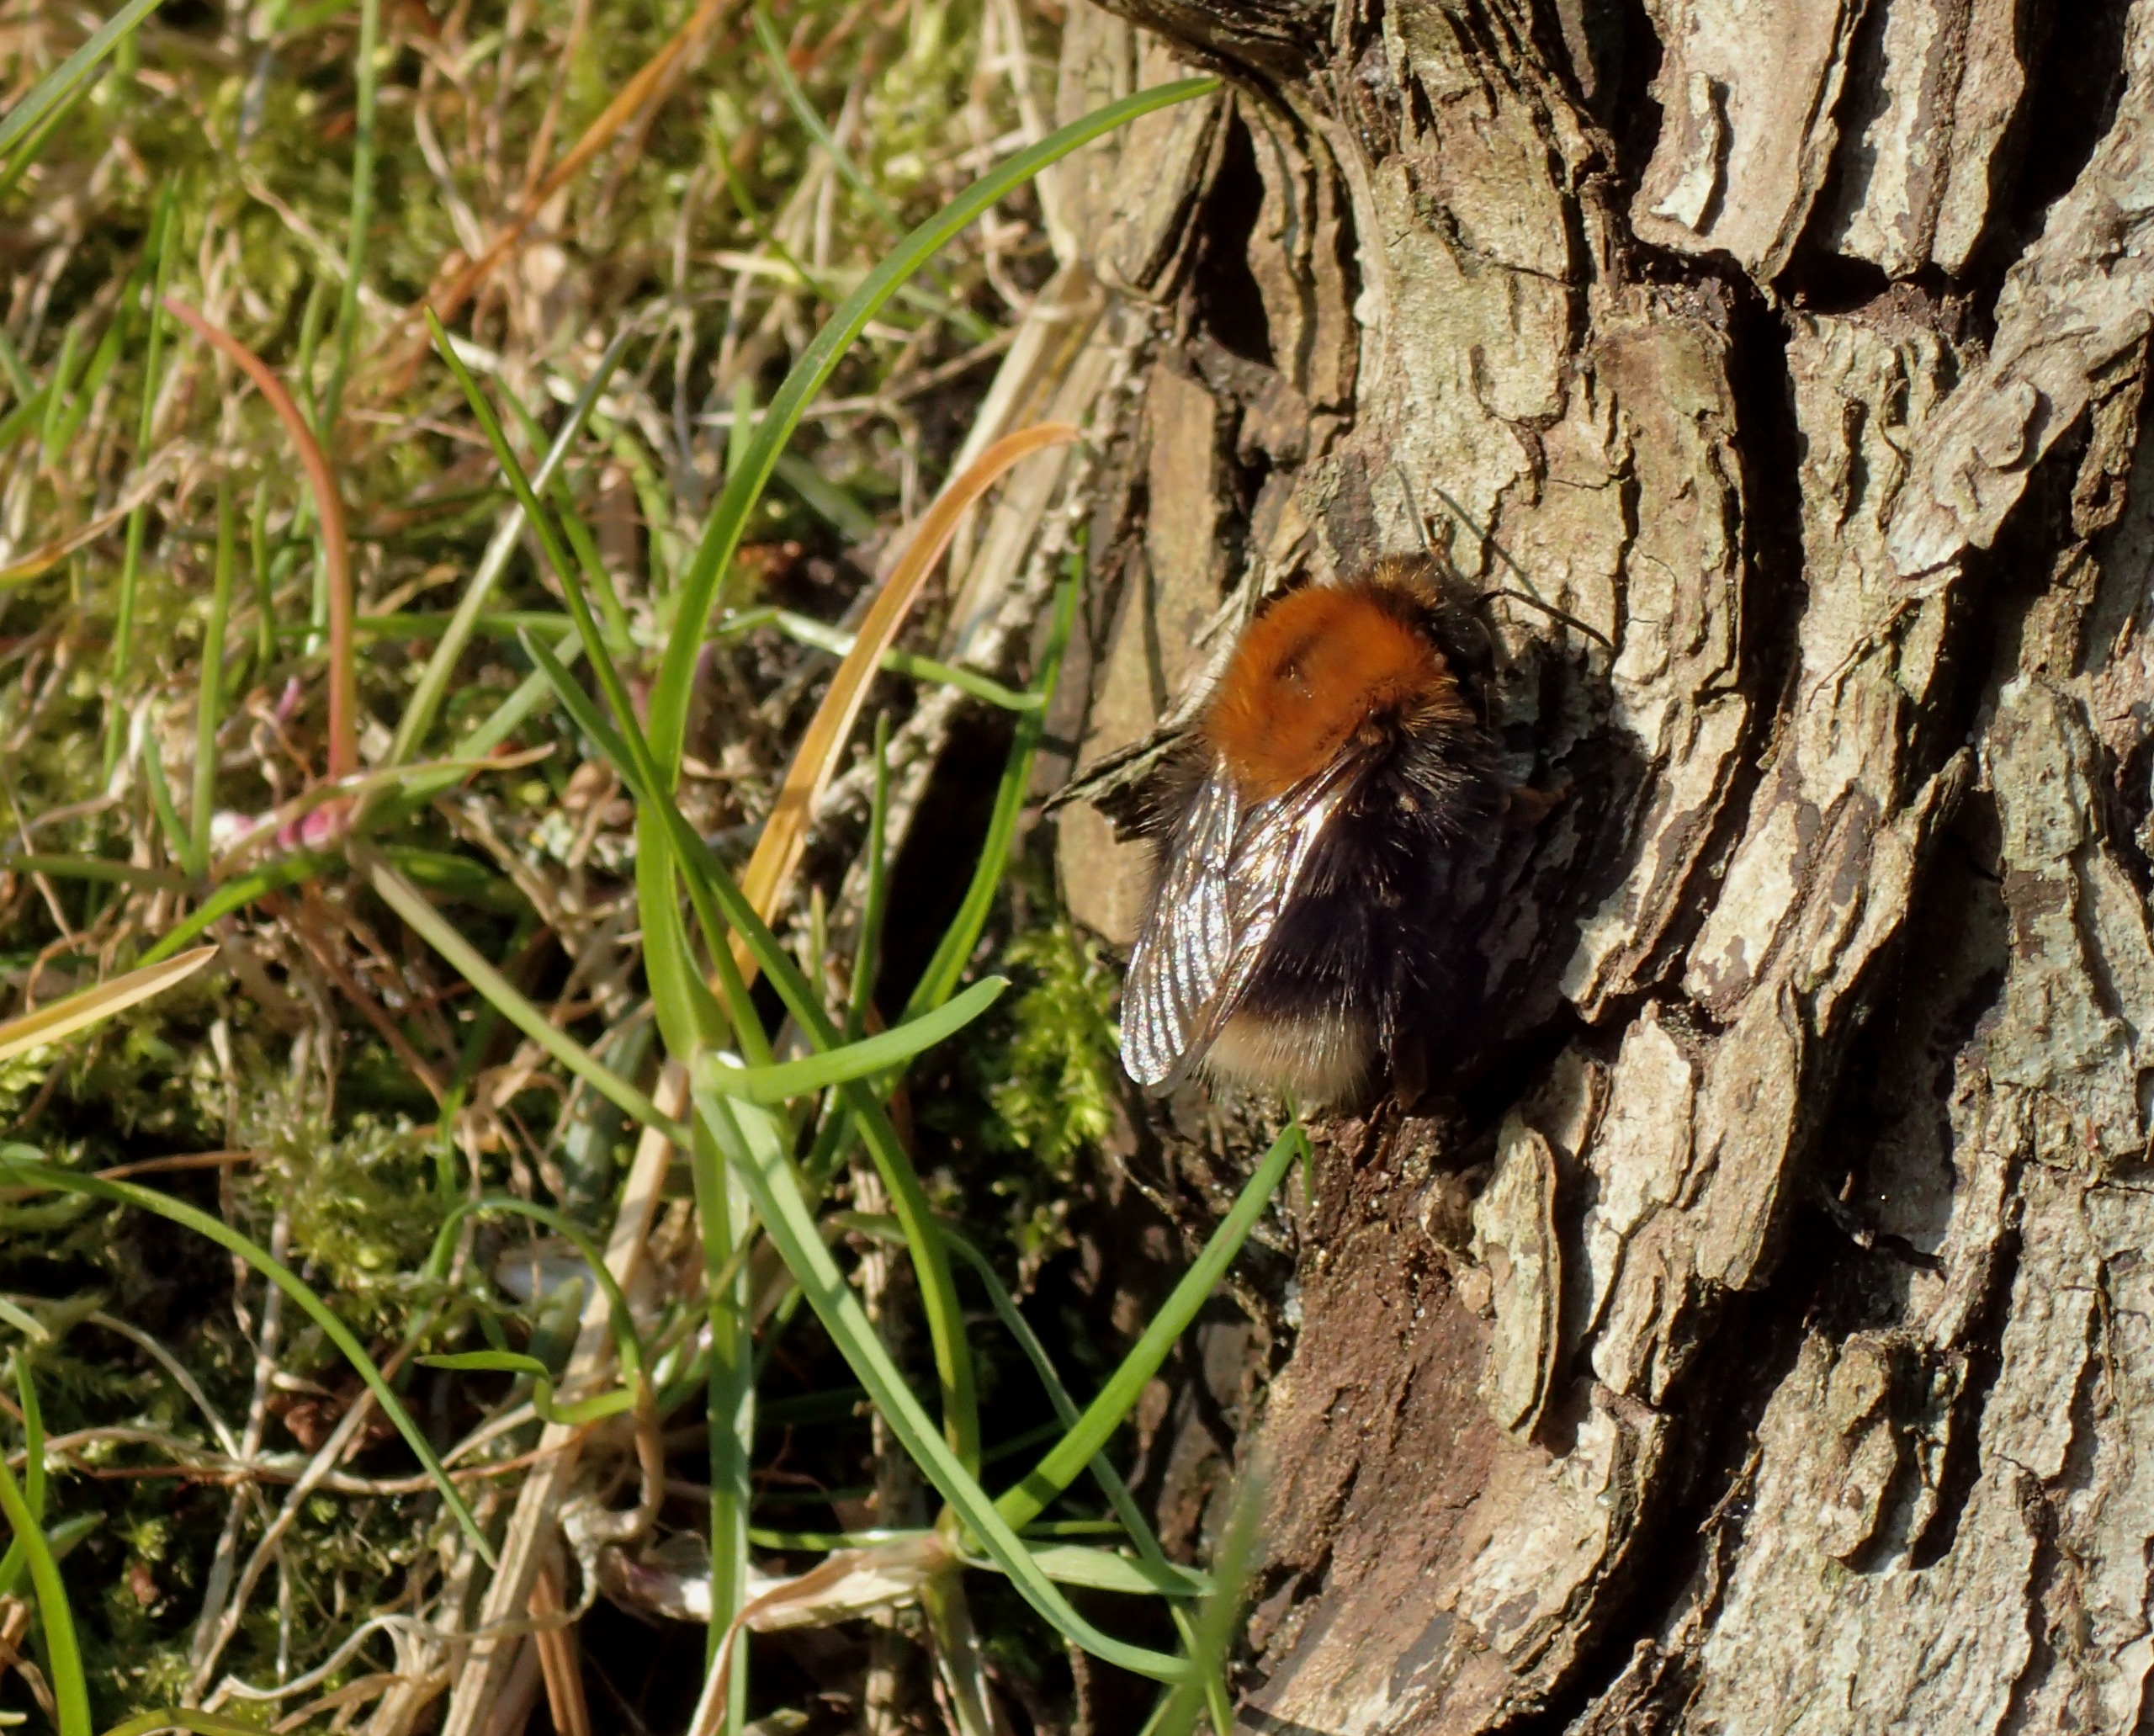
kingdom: Animalia
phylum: Arthropoda
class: Insecta
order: Hymenoptera
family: Apidae
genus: Bombus
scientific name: Bombus hypnorum
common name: Hushumle
